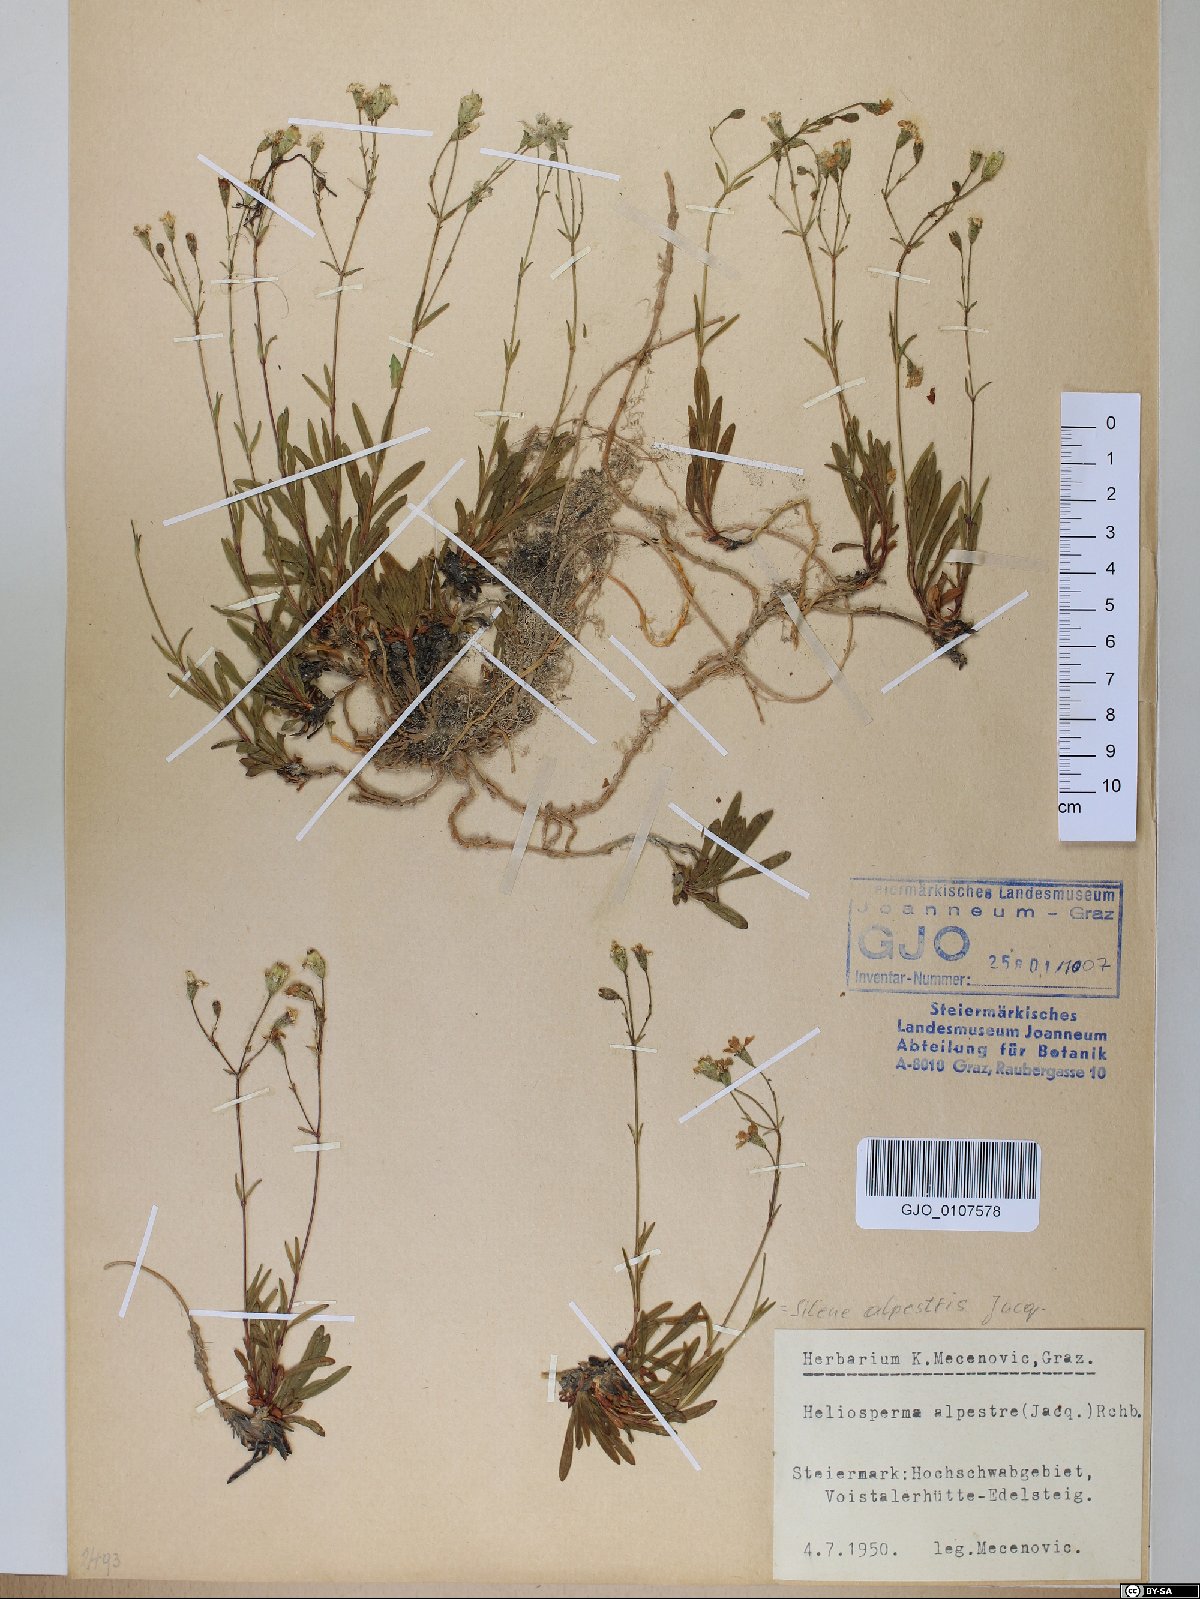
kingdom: Plantae
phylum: Tracheophyta
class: Magnoliopsida
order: Caryophyllales
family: Caryophyllaceae
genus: Heliosperma
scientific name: Heliosperma alpestre
